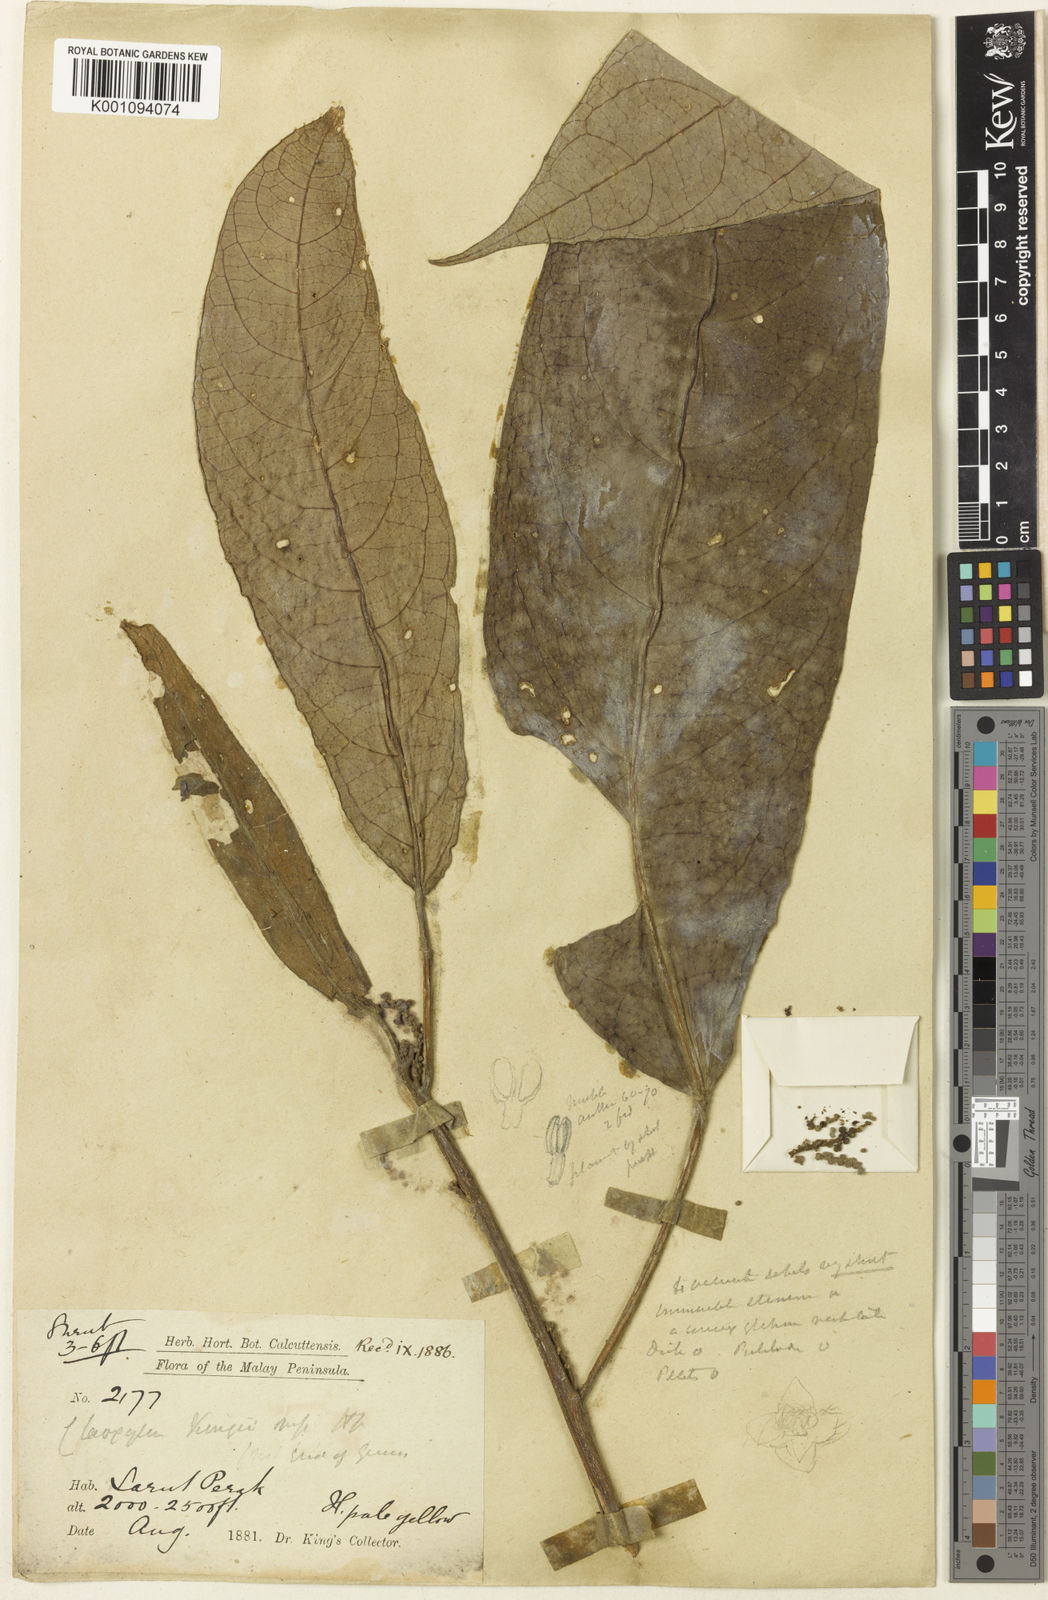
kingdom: Plantae
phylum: Tracheophyta
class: Magnoliopsida
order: Malpighiales
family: Euphorbiaceae
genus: Claoxylon
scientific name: Claoxylon
